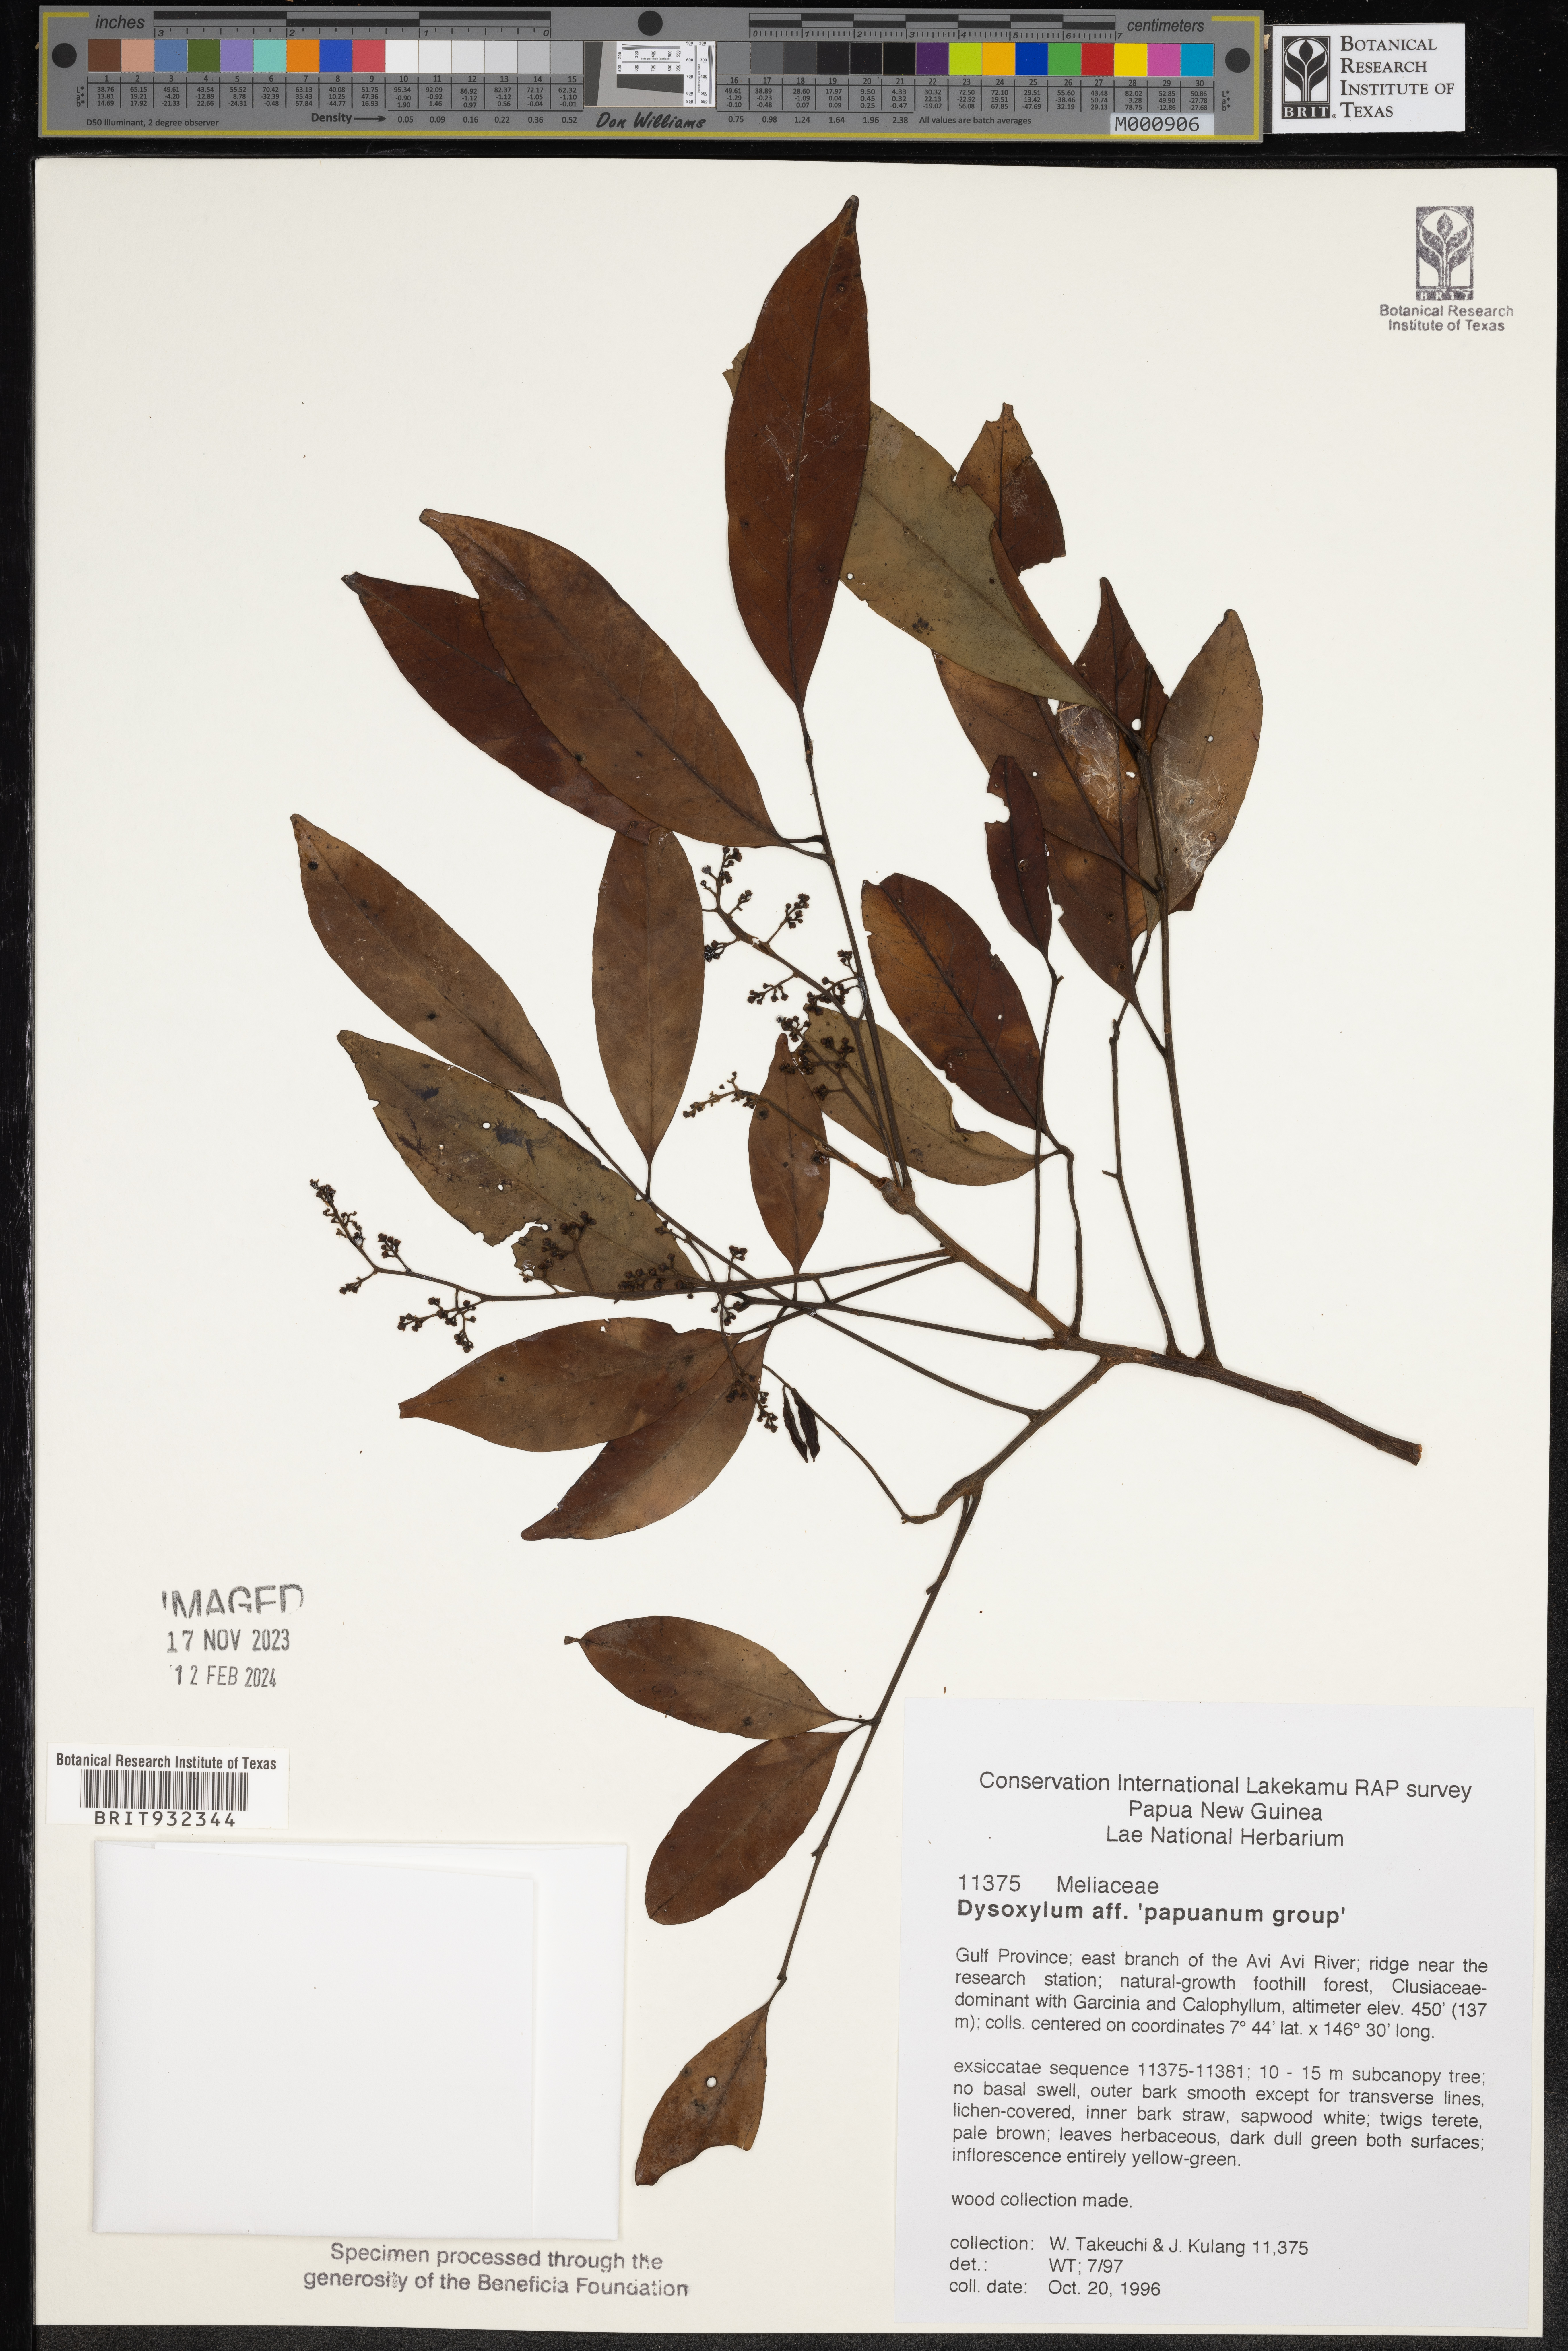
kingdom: Plantae
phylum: Tracheophyta
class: Magnoliopsida
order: Sapindales
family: Meliaceae
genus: Dysoxylum
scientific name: Dysoxylum
